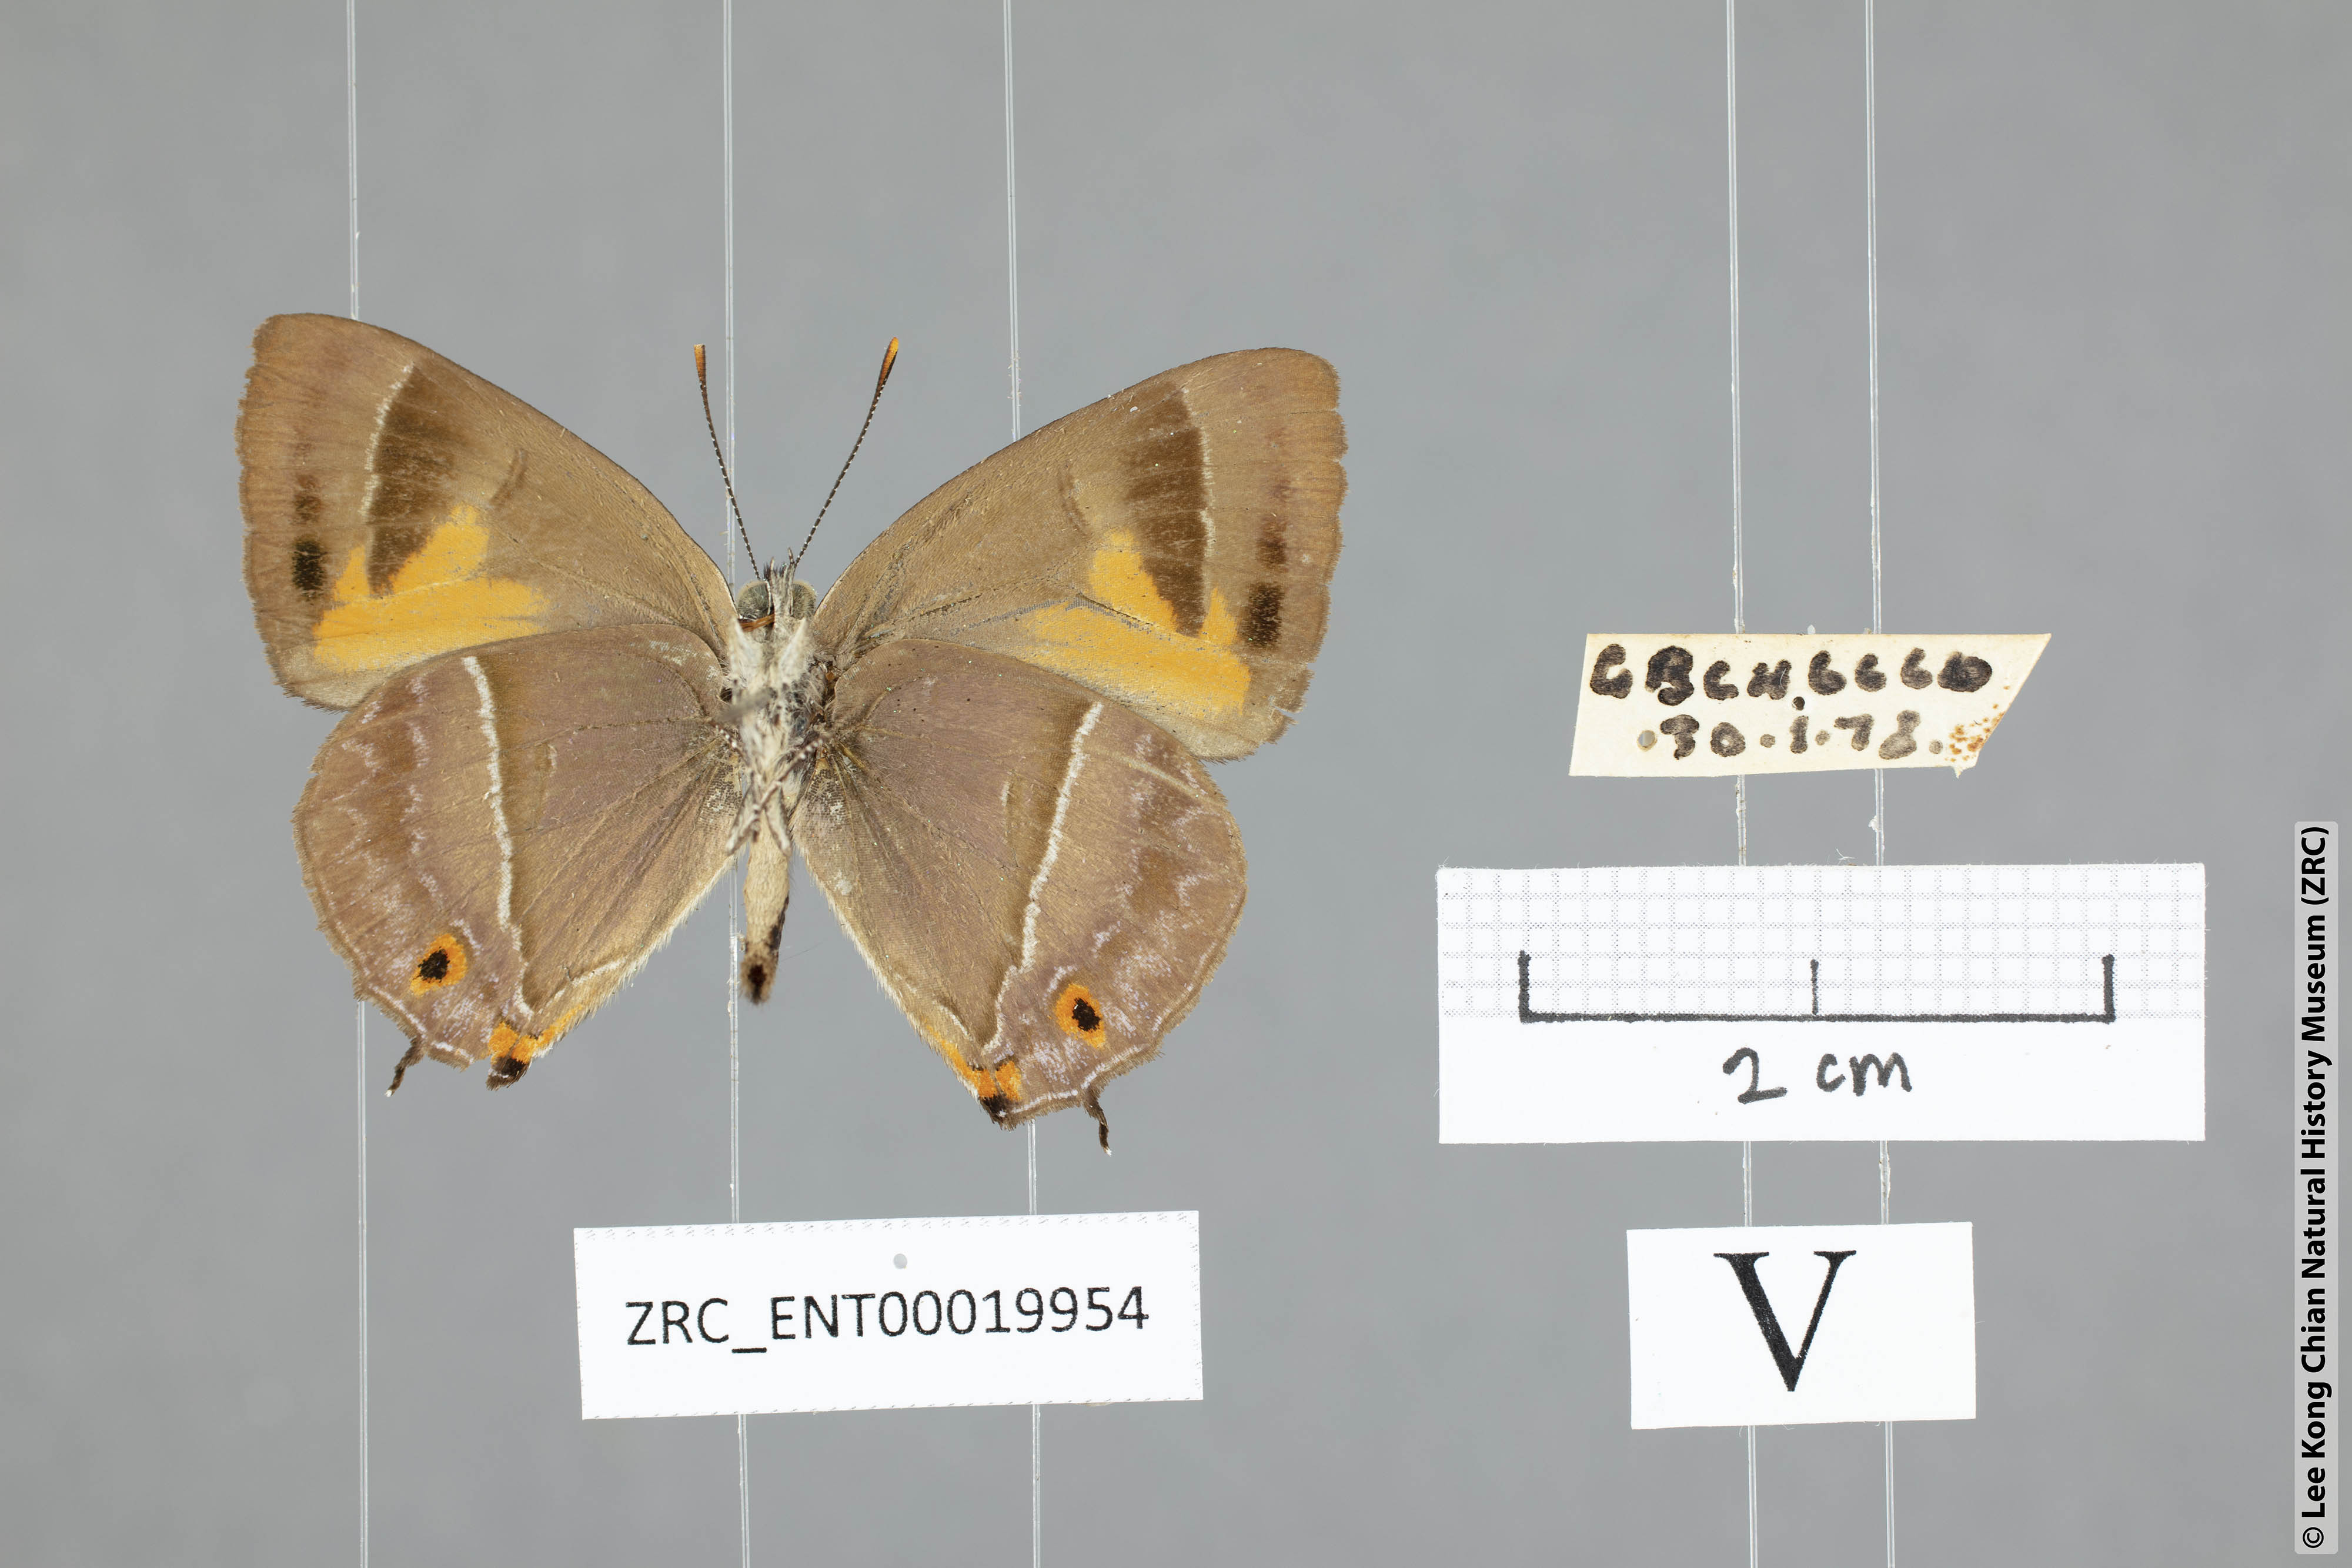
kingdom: Animalia
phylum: Arthropoda
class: Insecta
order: Lepidoptera
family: Lycaenidae
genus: Austrozephyrus
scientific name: Austrozephyrus absolon
